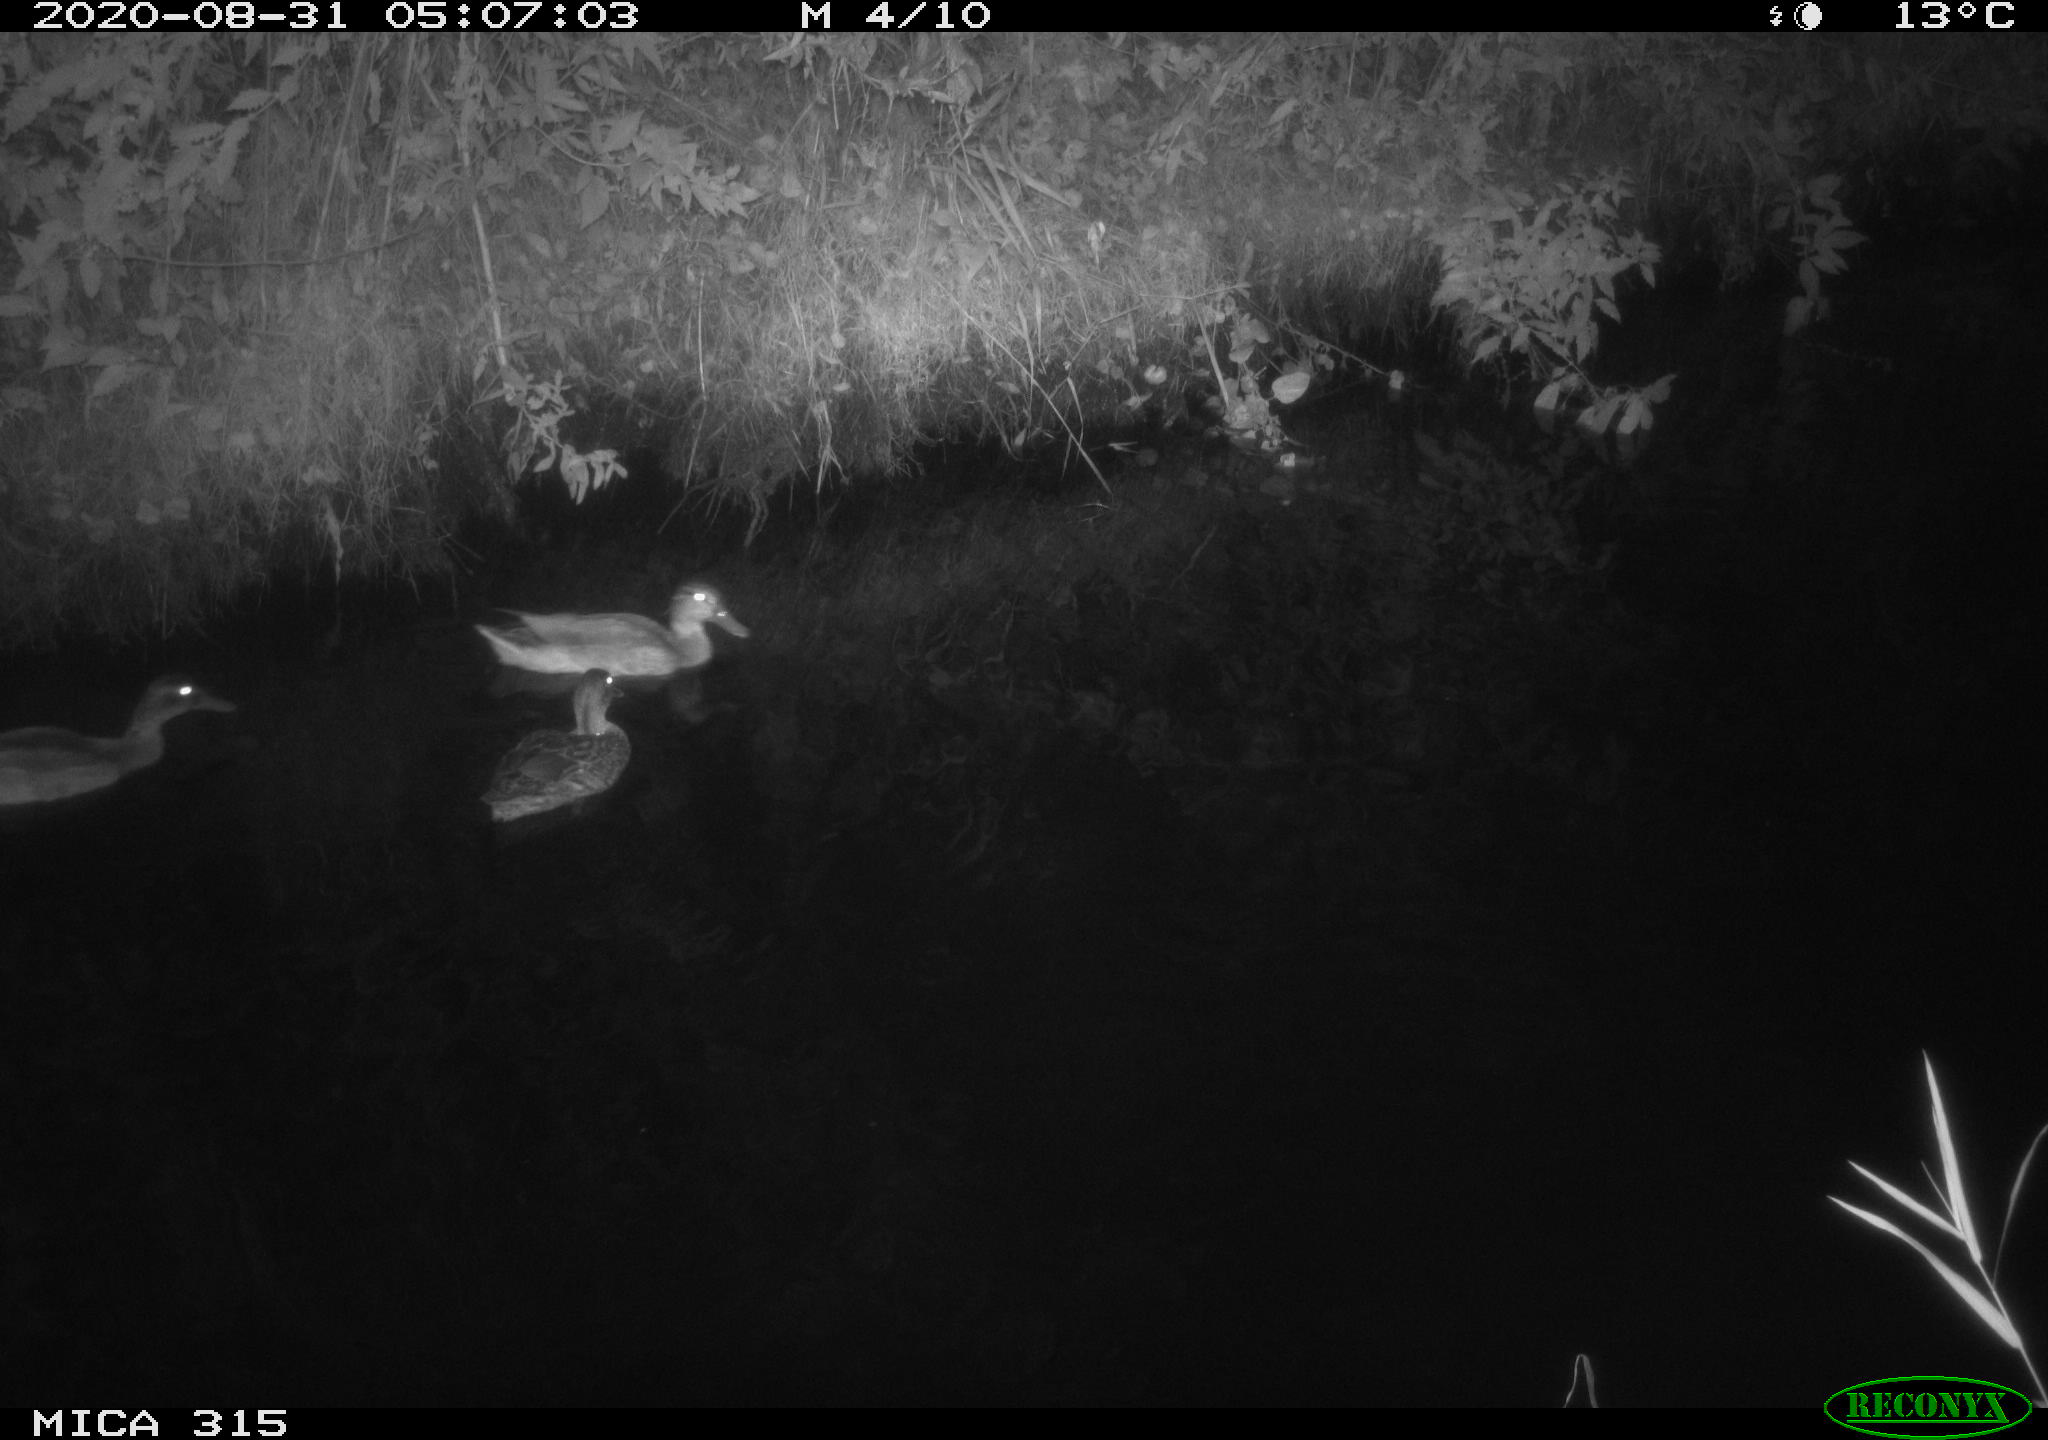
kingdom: Animalia
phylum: Chordata
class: Aves
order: Anseriformes
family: Anatidae
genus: Anas
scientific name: Anas platyrhynchos
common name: Mallard
